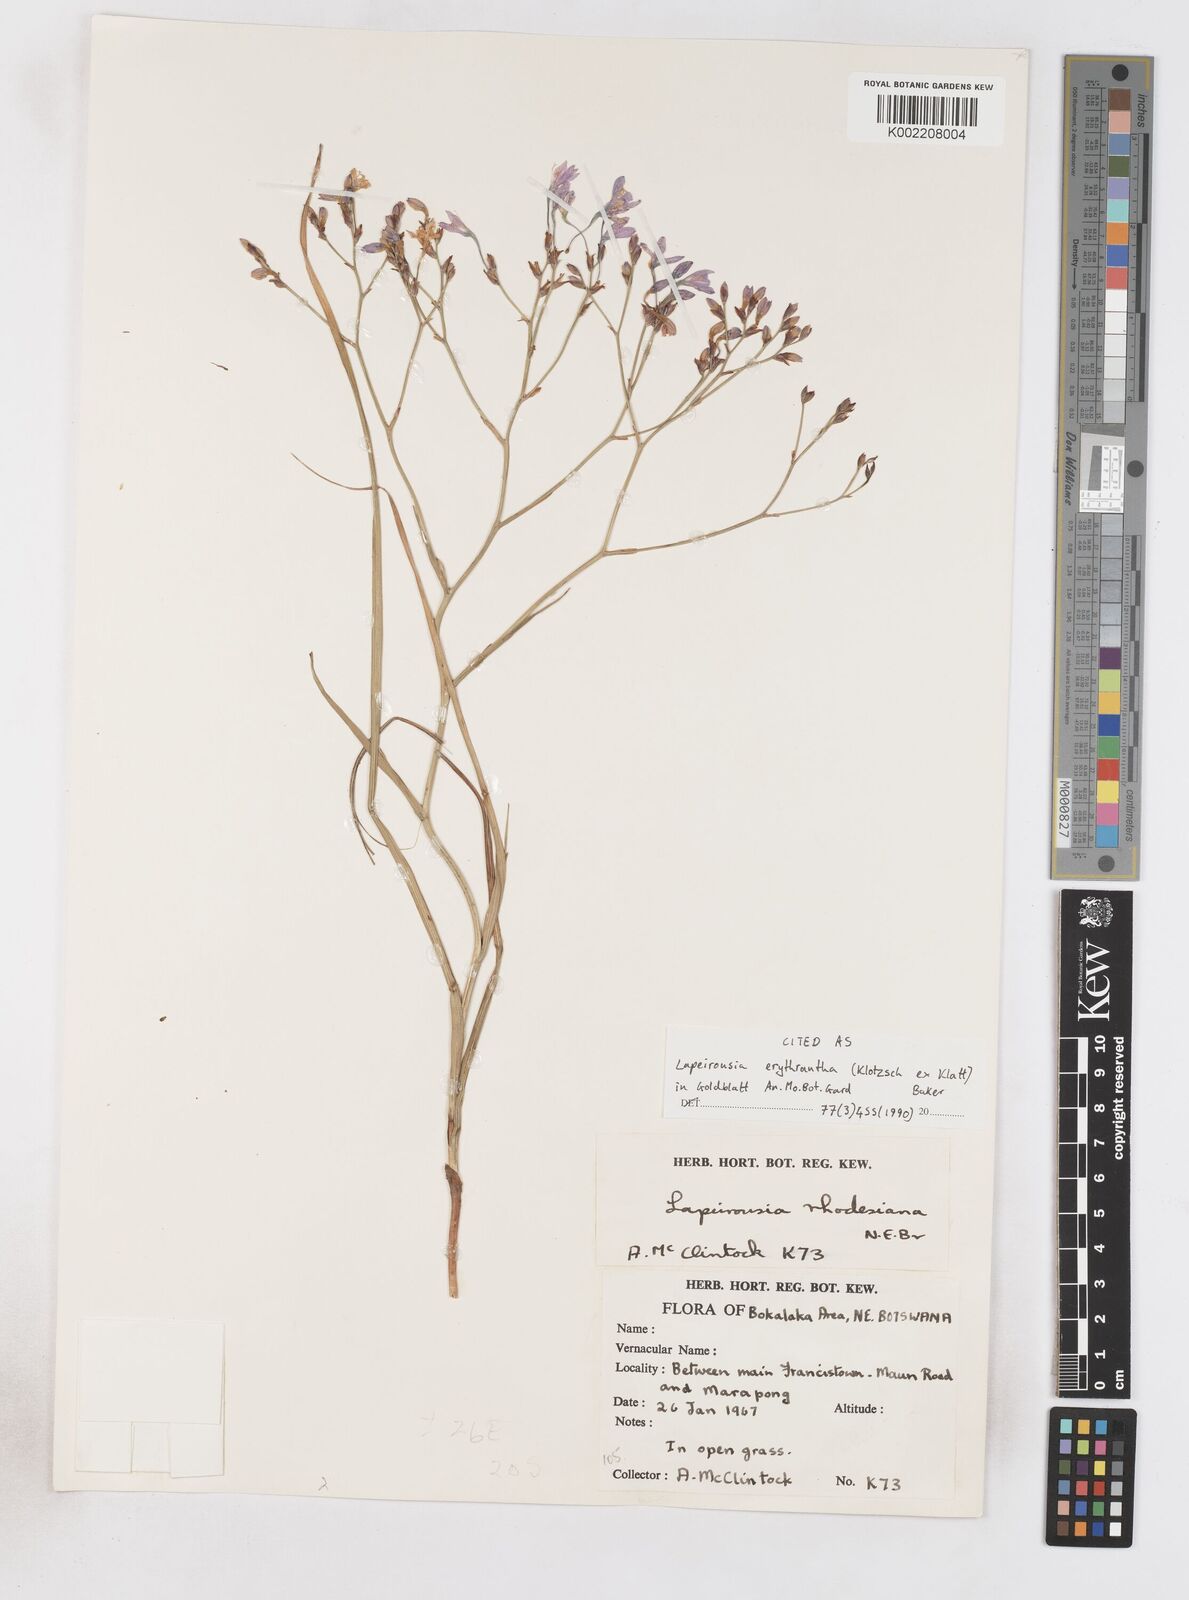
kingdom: Plantae
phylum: Tracheophyta
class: Liliopsida
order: Asparagales
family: Iridaceae
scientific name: Iridaceae
